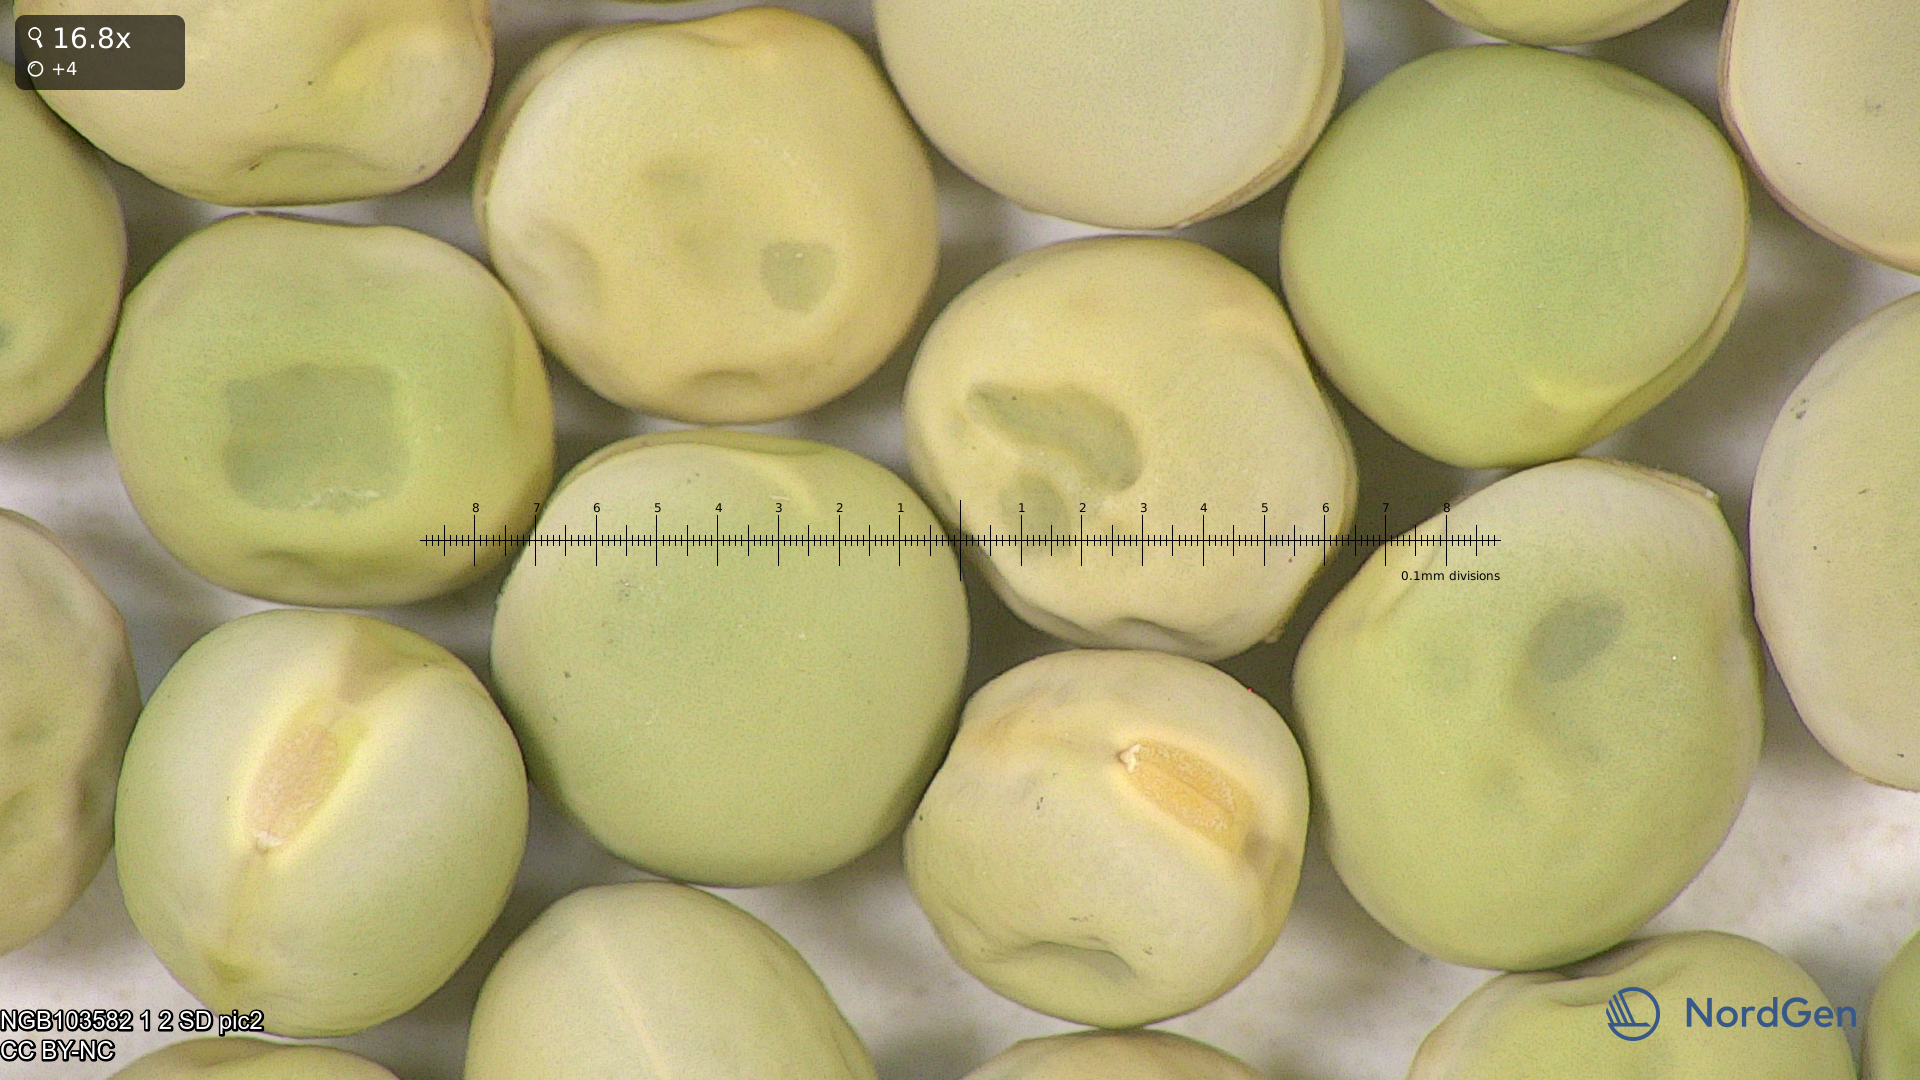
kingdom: Plantae
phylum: Tracheophyta
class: Magnoliopsida
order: Fabales
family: Fabaceae
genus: Lathyrus
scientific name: Lathyrus oleraceus
